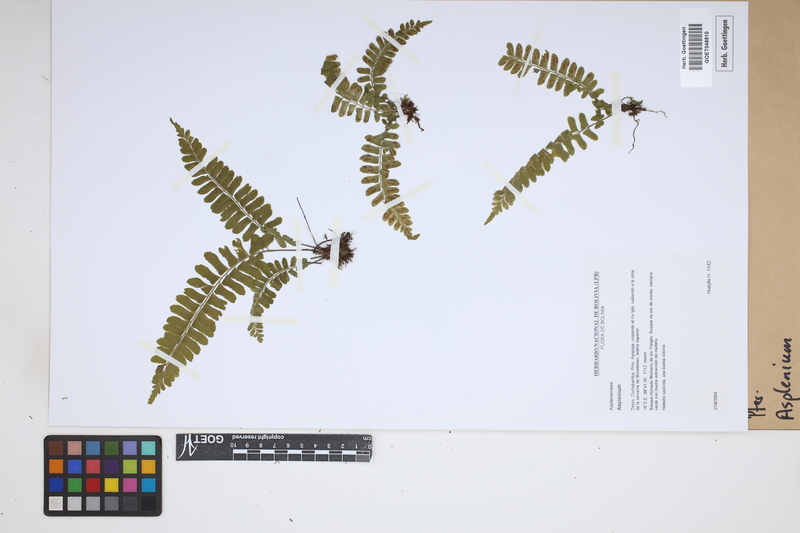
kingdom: Plantae
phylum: Tracheophyta
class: Polypodiopsida
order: Polypodiales
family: Aspleniaceae
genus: Asplenium
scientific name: Asplenium
